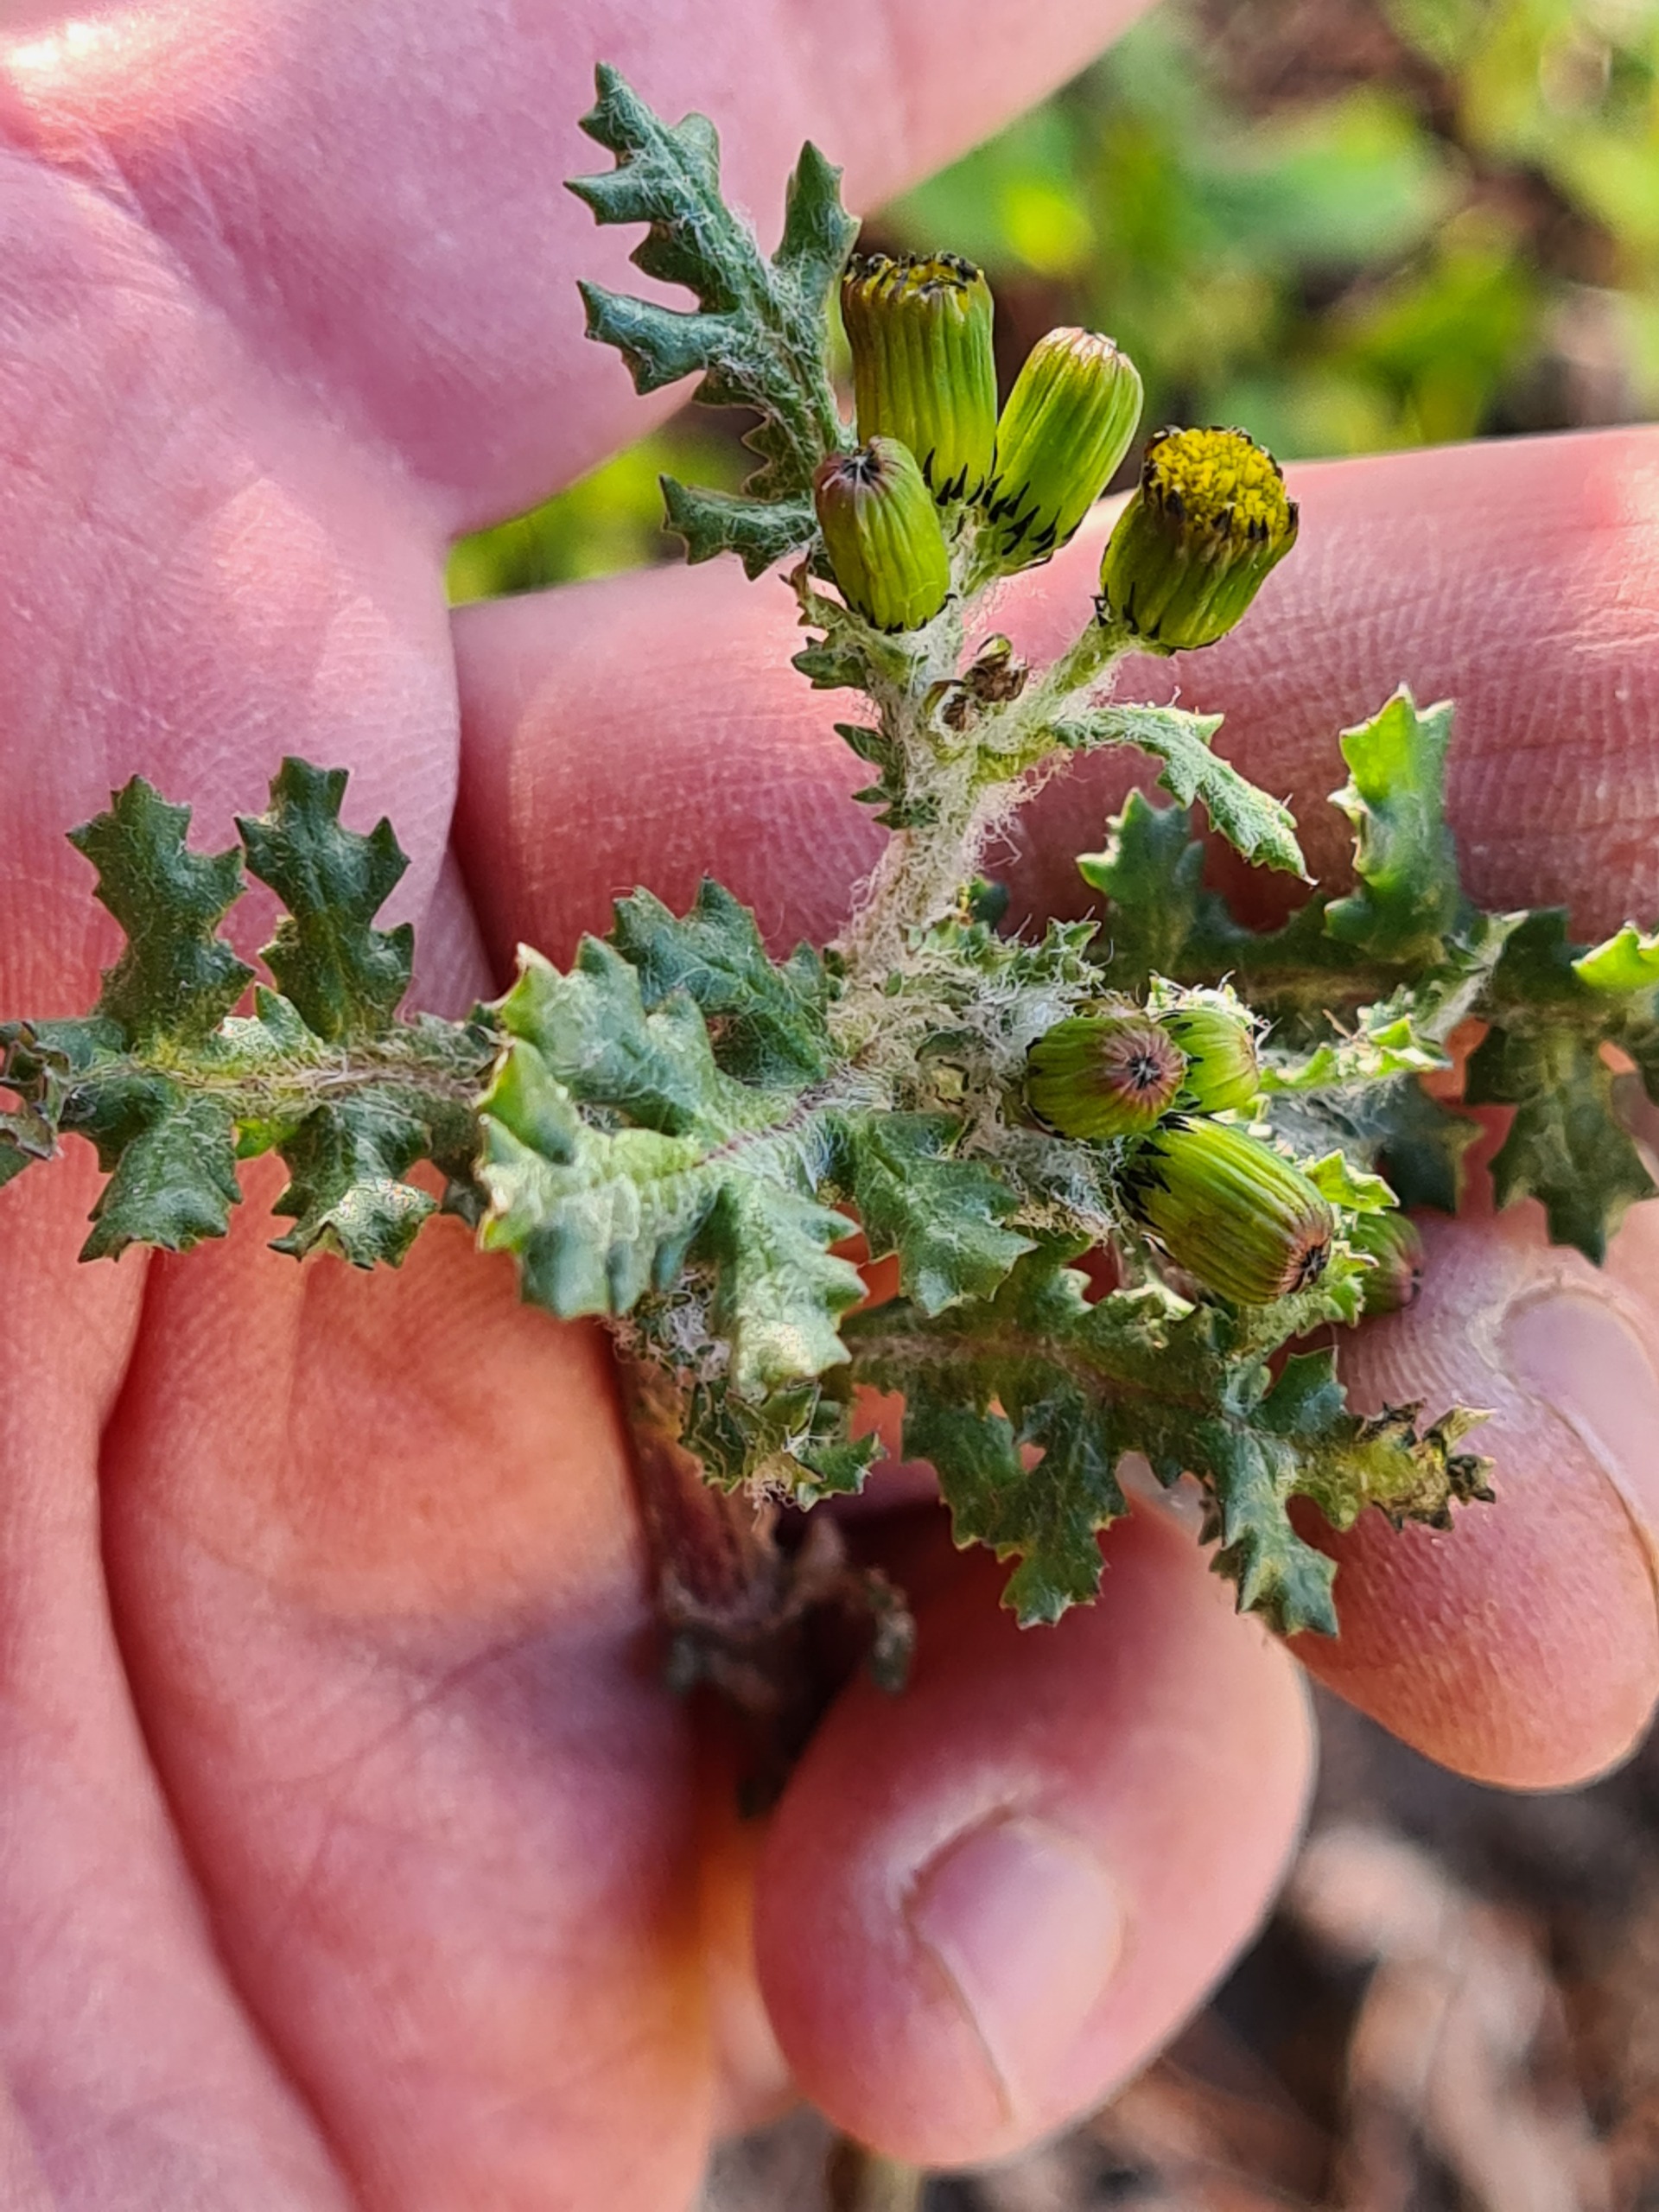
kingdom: Plantae
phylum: Tracheophyta
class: Magnoliopsida
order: Asterales
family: Asteraceae
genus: Senecio
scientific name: Senecio vulgaris
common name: Almindelig brandbæger
